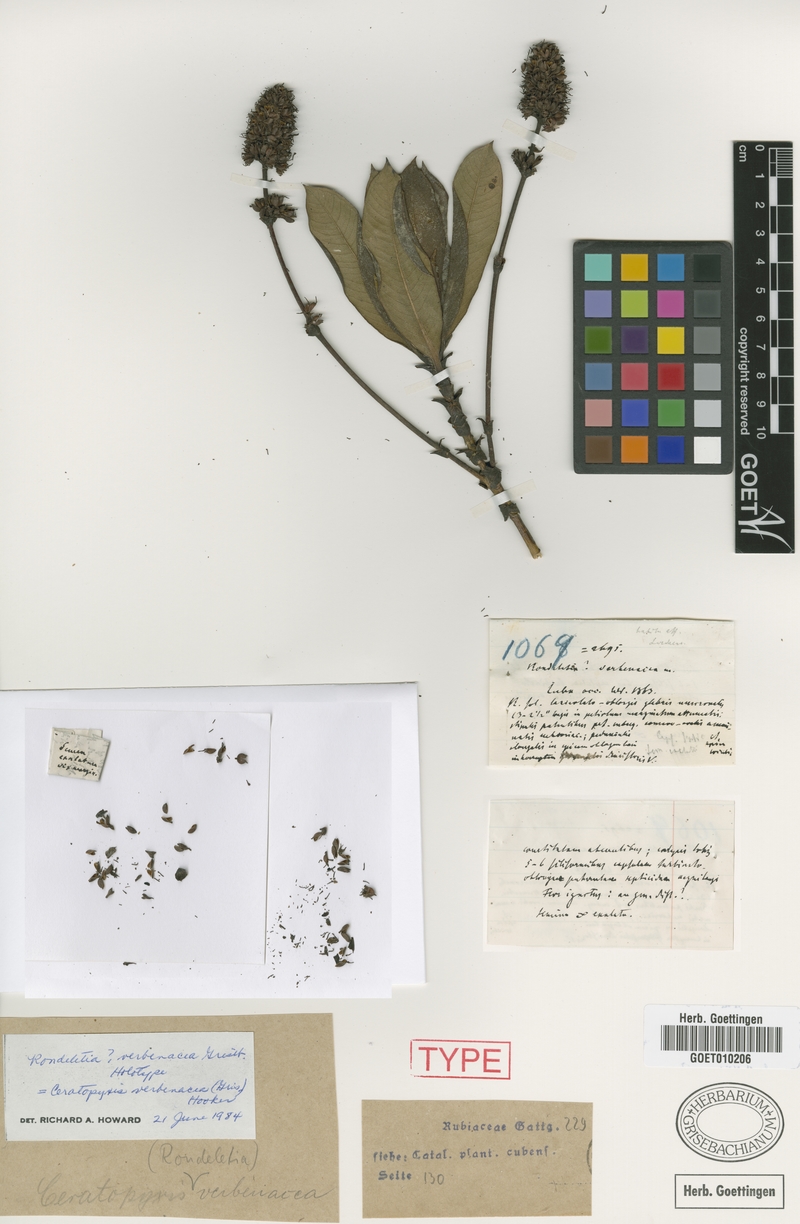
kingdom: Plantae
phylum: Tracheophyta
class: Magnoliopsida
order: Gentianales
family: Rubiaceae
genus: Ceratopyxis
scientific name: Ceratopyxis verbenacea
